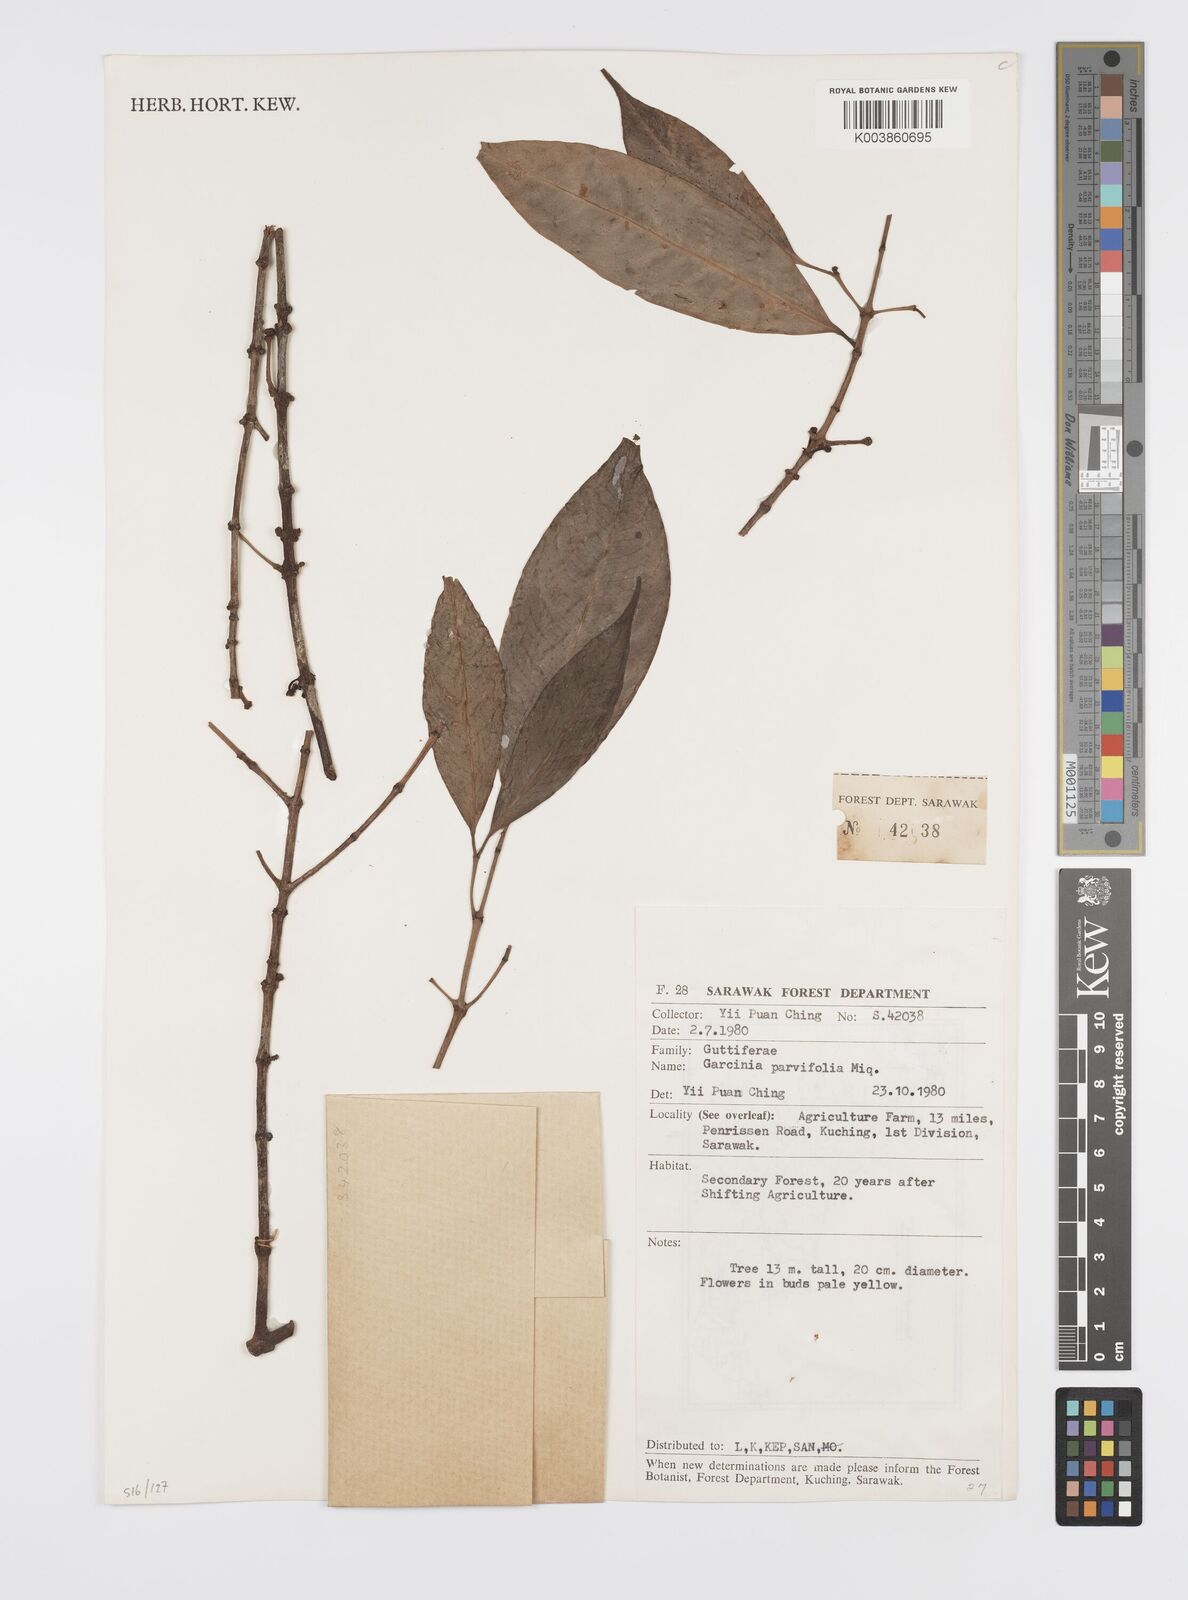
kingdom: Plantae
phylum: Tracheophyta
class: Magnoliopsida
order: Malpighiales
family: Clusiaceae
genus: Garcinia
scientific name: Garcinia parvifolia
